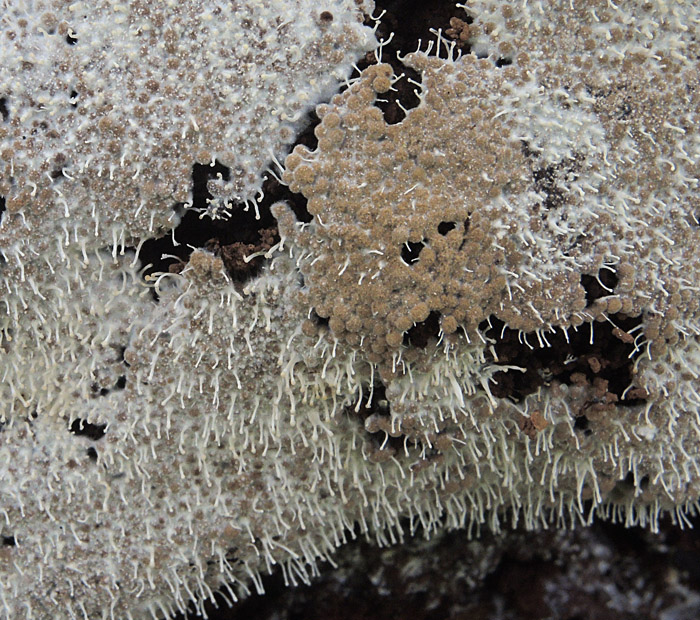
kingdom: Protozoa
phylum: Mycetozoa
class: Myxomycetes
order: Cribrariales
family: Cribrariaceae
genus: Cribraria
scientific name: Cribraria persoonii
